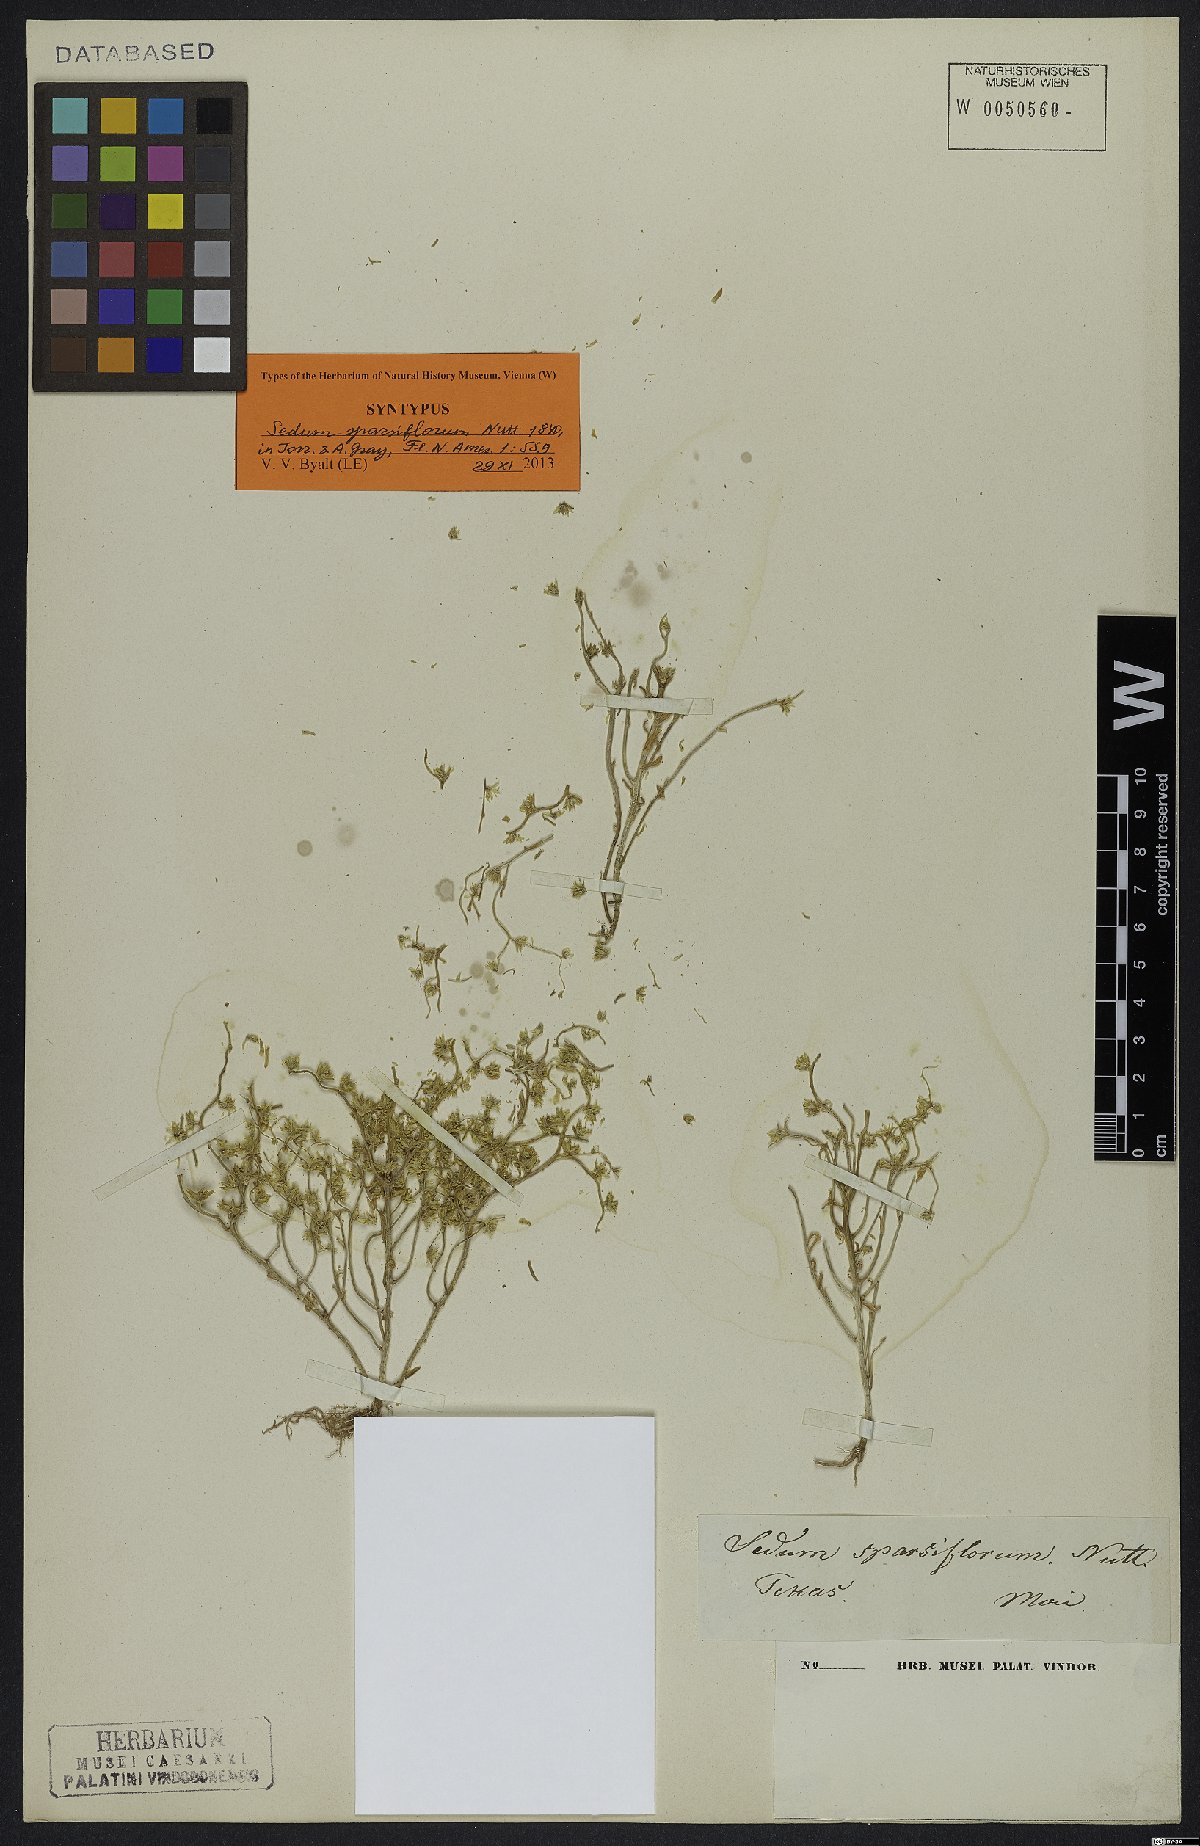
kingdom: Plantae
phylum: Tracheophyta
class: Magnoliopsida
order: Saxifragales
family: Crassulaceae
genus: Sedum
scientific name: Sedum nuttallii
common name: Yellow stonecrop
